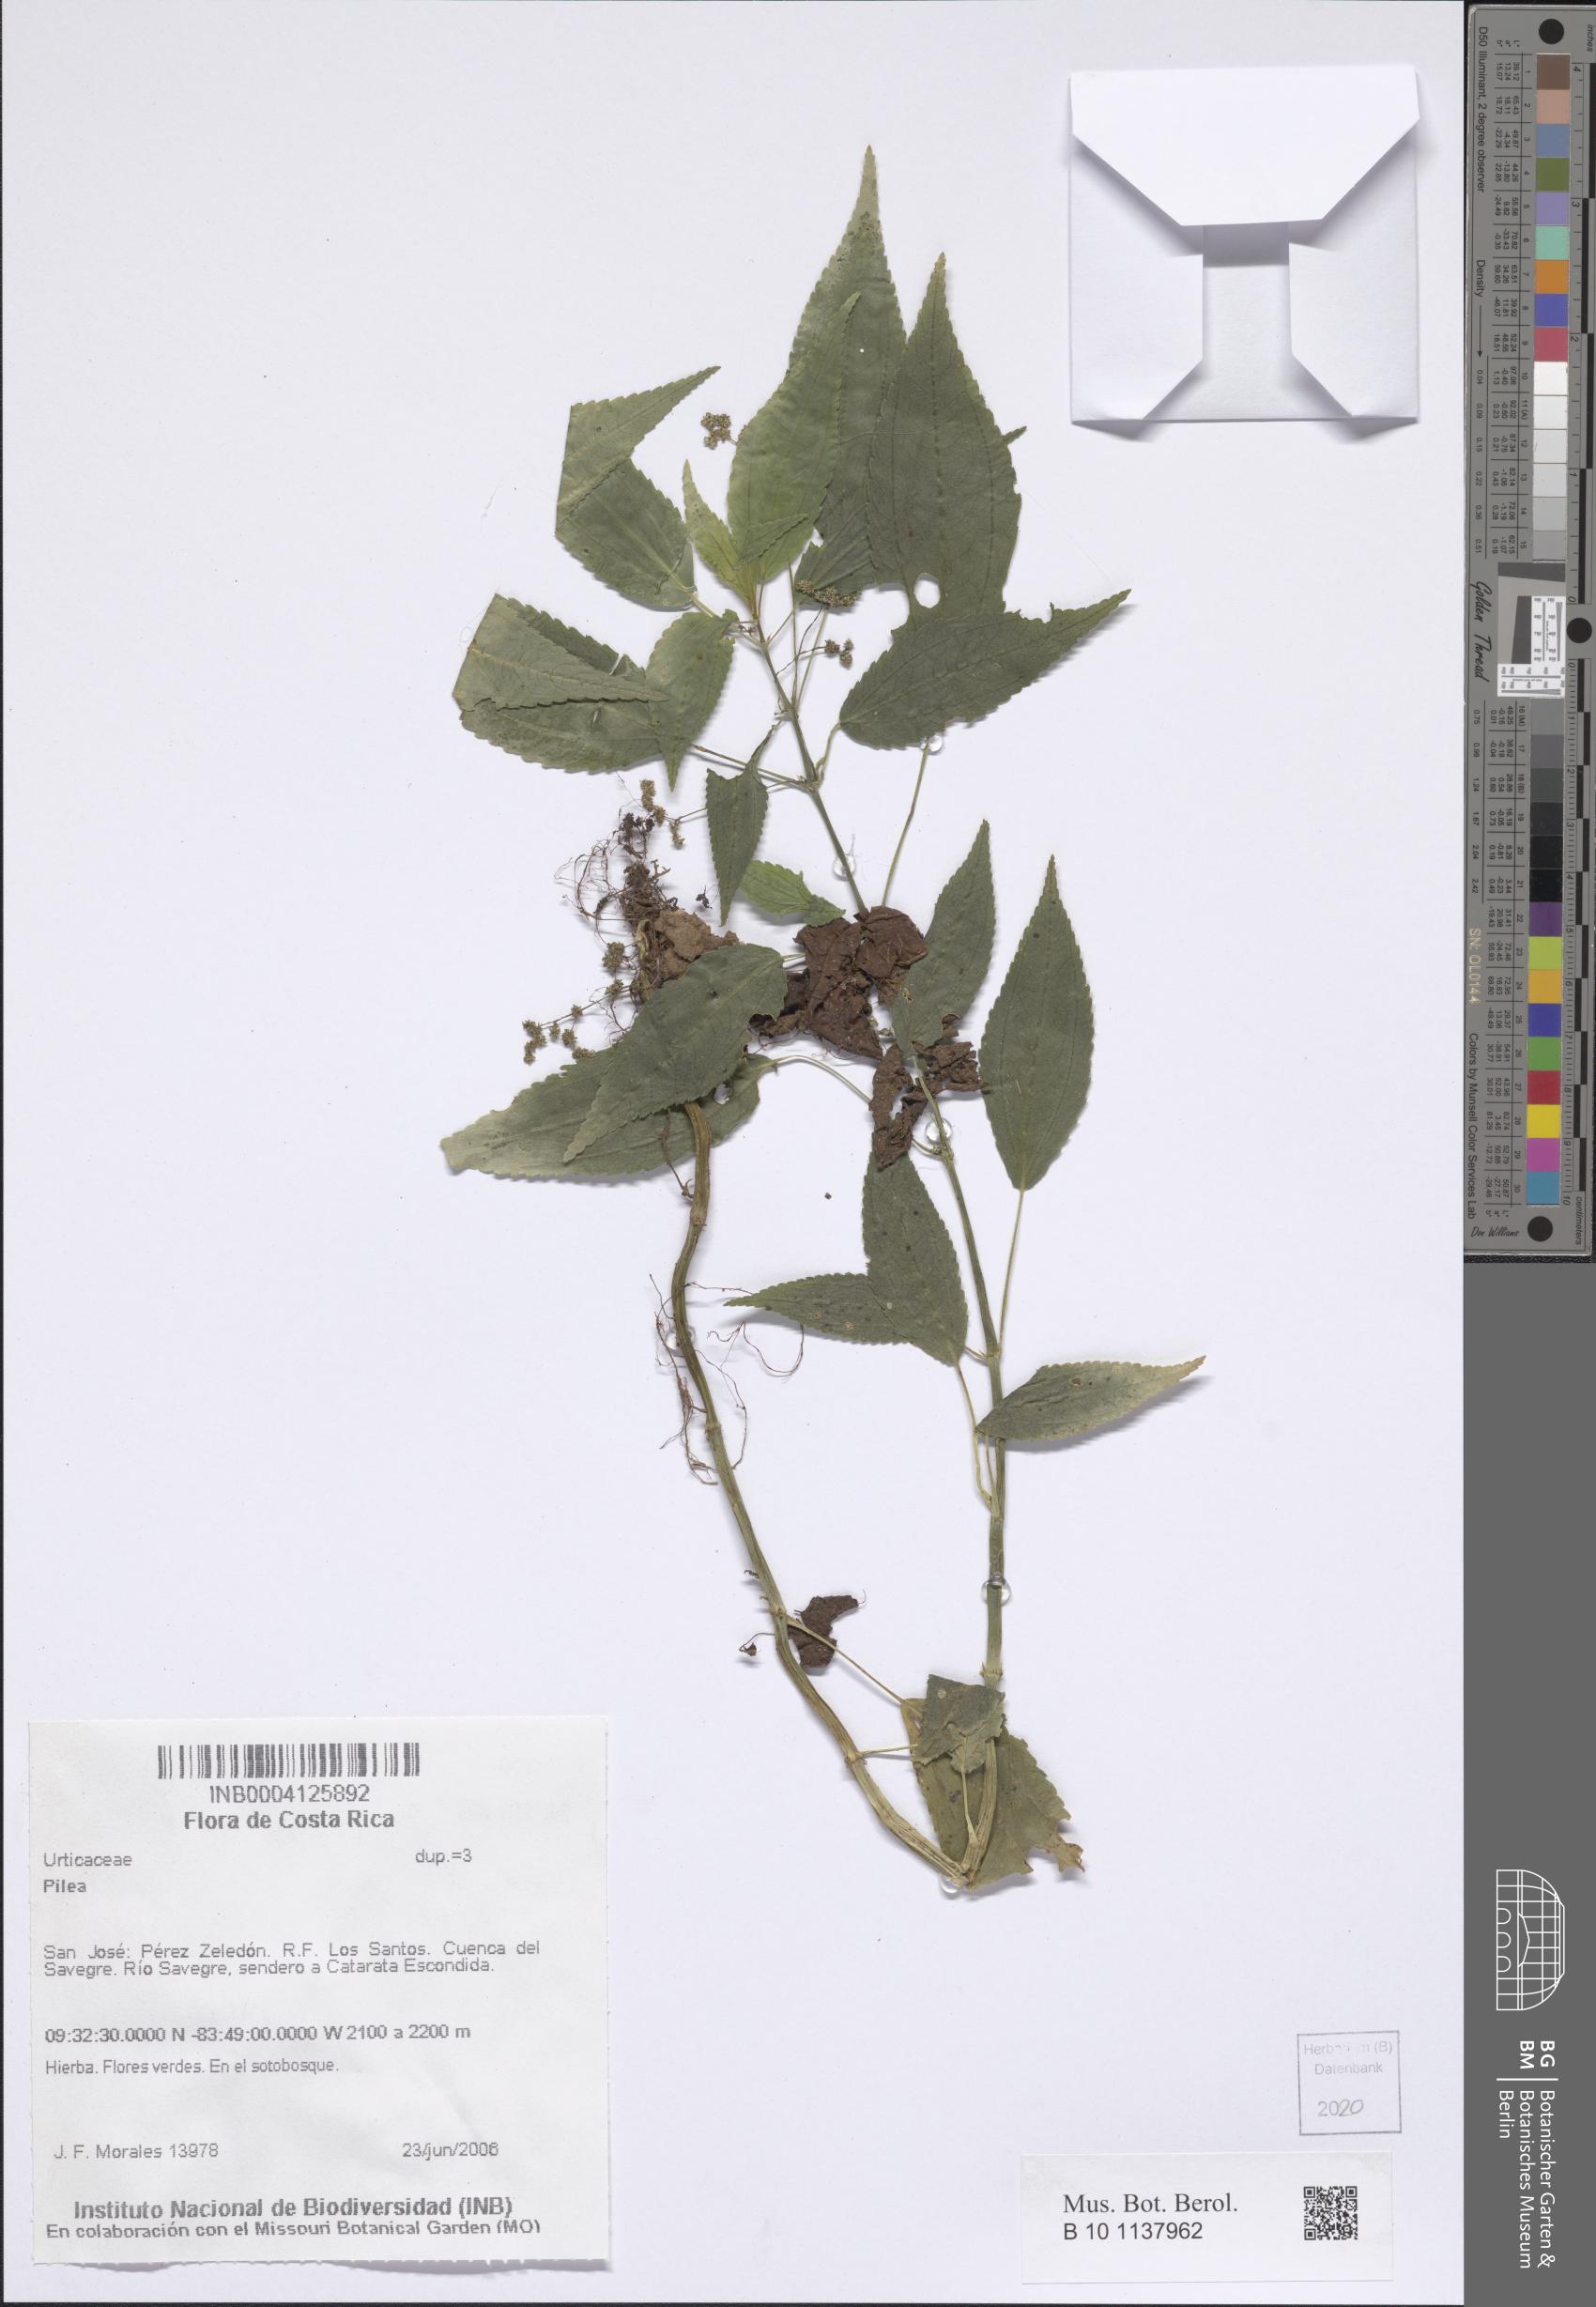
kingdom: Plantae
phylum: Tracheophyta
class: Magnoliopsida
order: Rosales
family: Urticaceae
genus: Pilea
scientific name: Pilea
